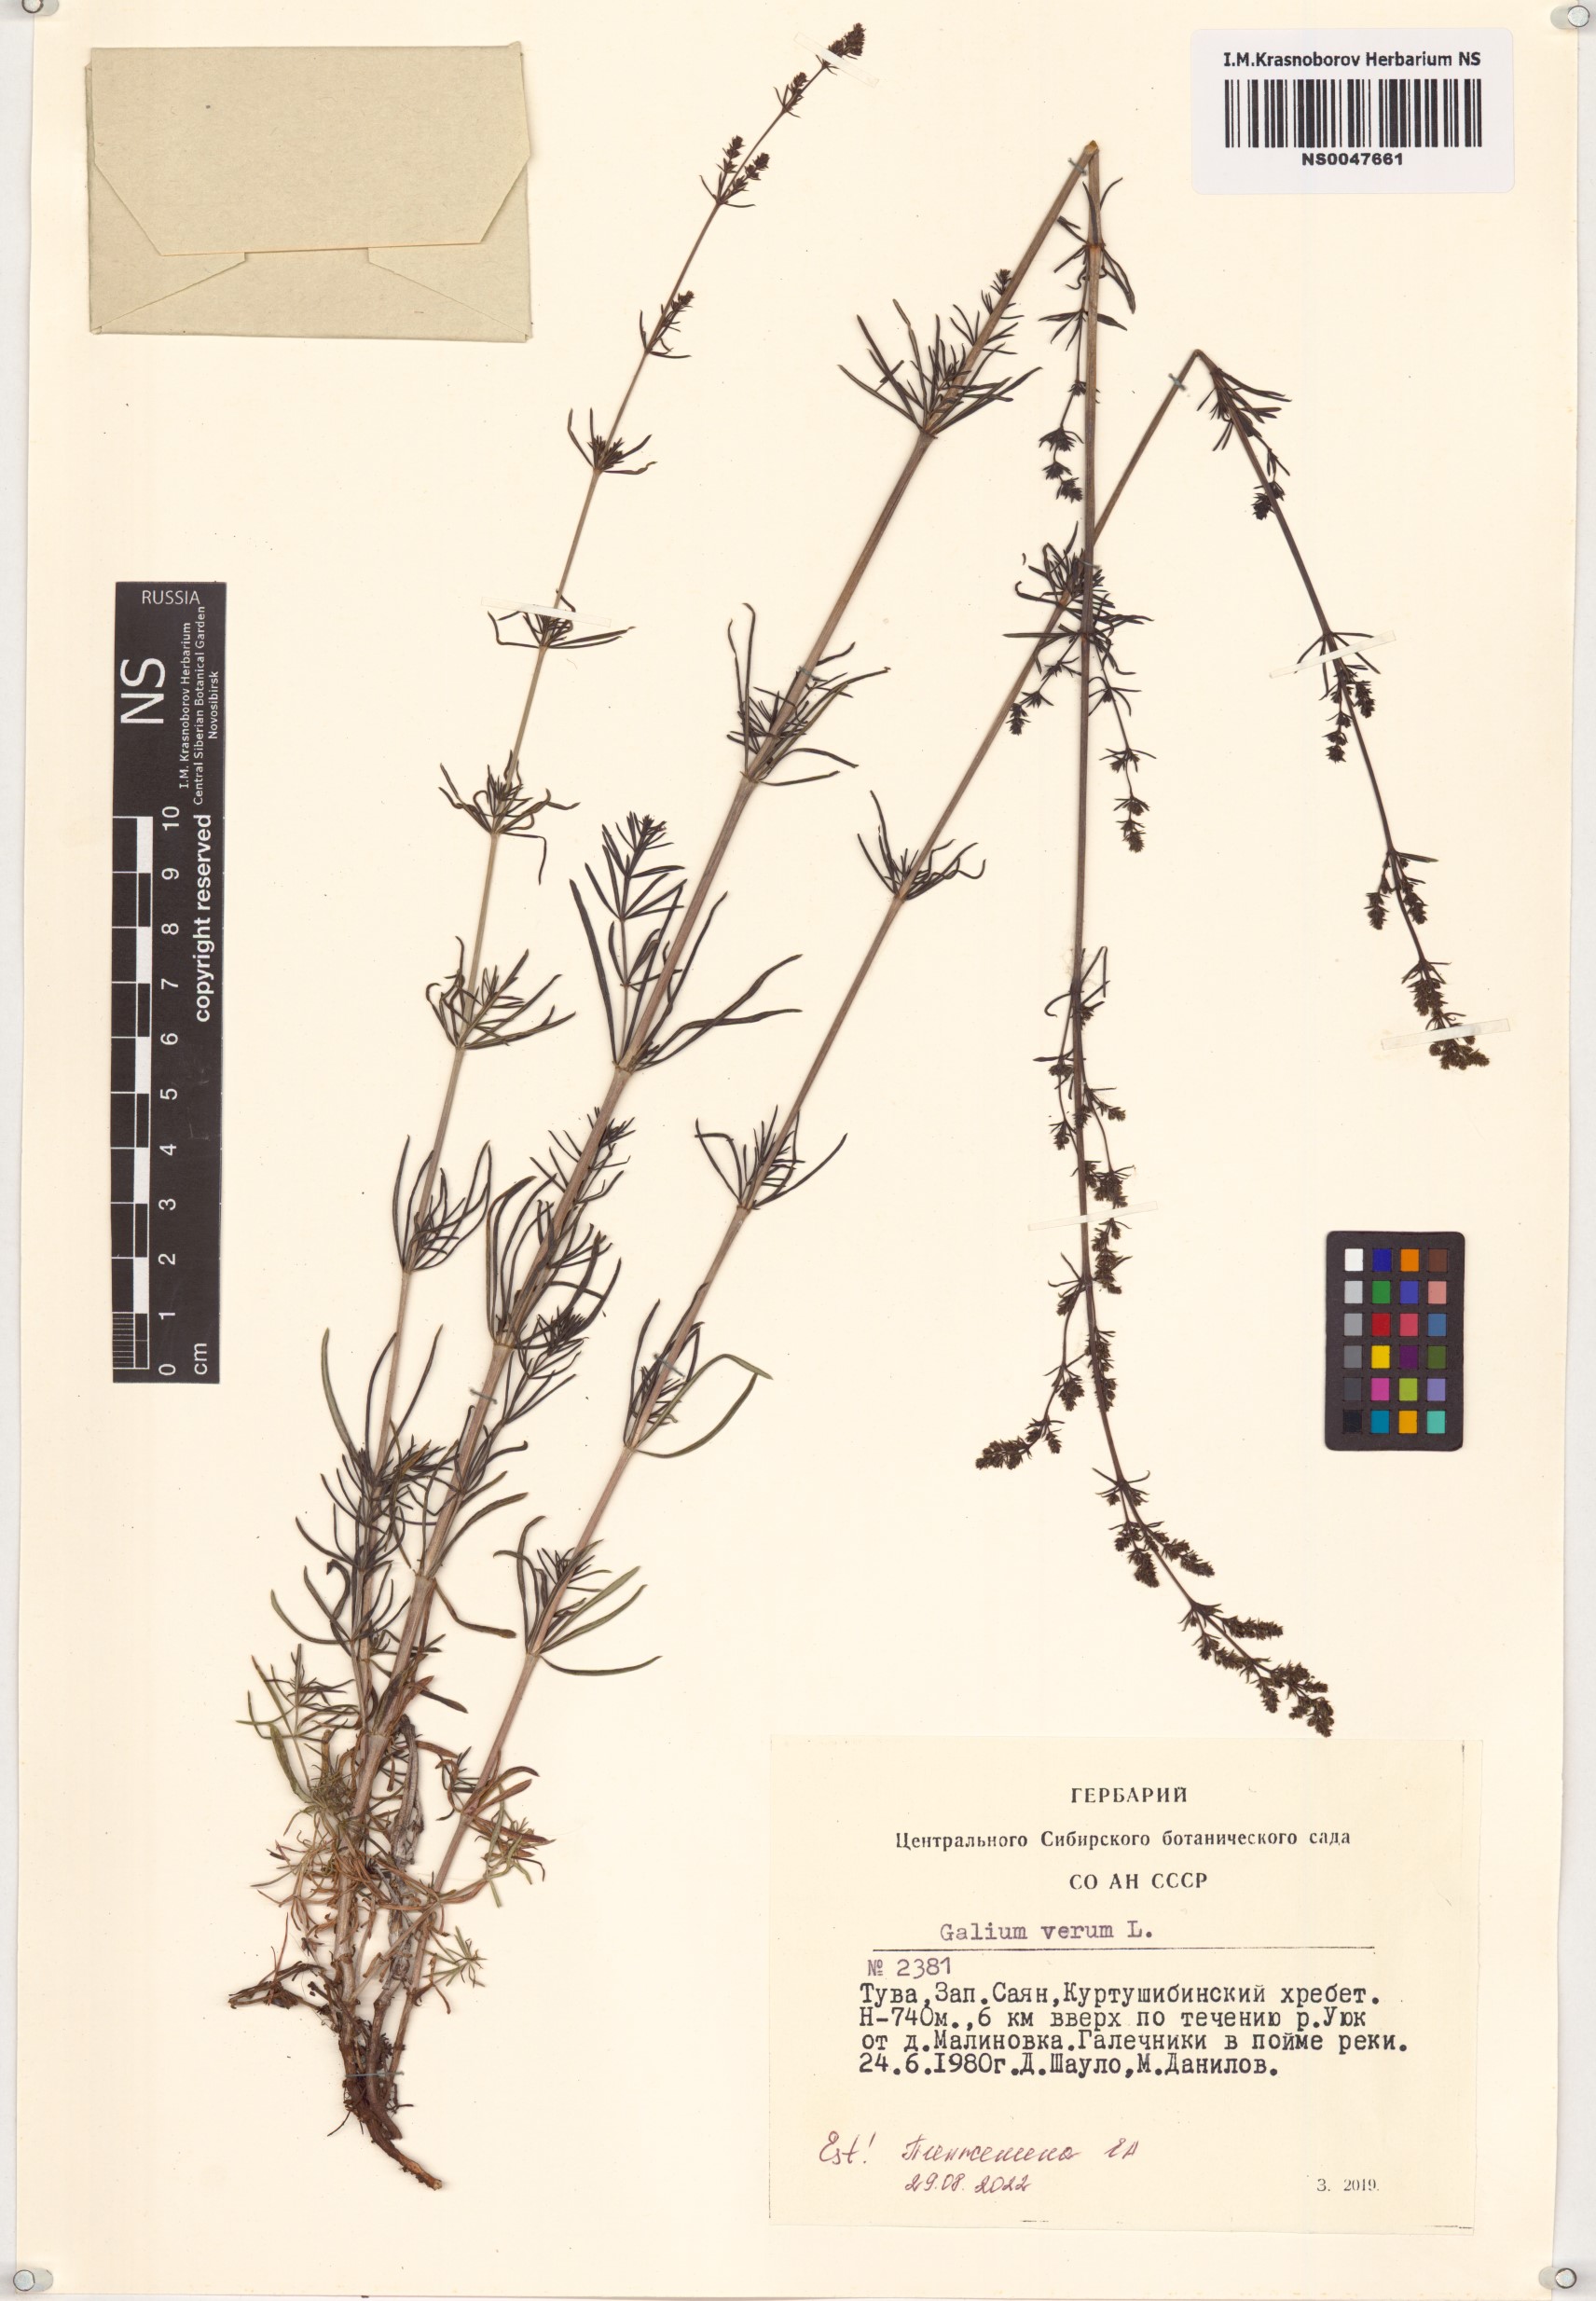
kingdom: Plantae
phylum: Tracheophyta
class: Magnoliopsida
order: Gentianales
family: Rubiaceae
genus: Galium
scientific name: Galium verum
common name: Lady's bedstraw
